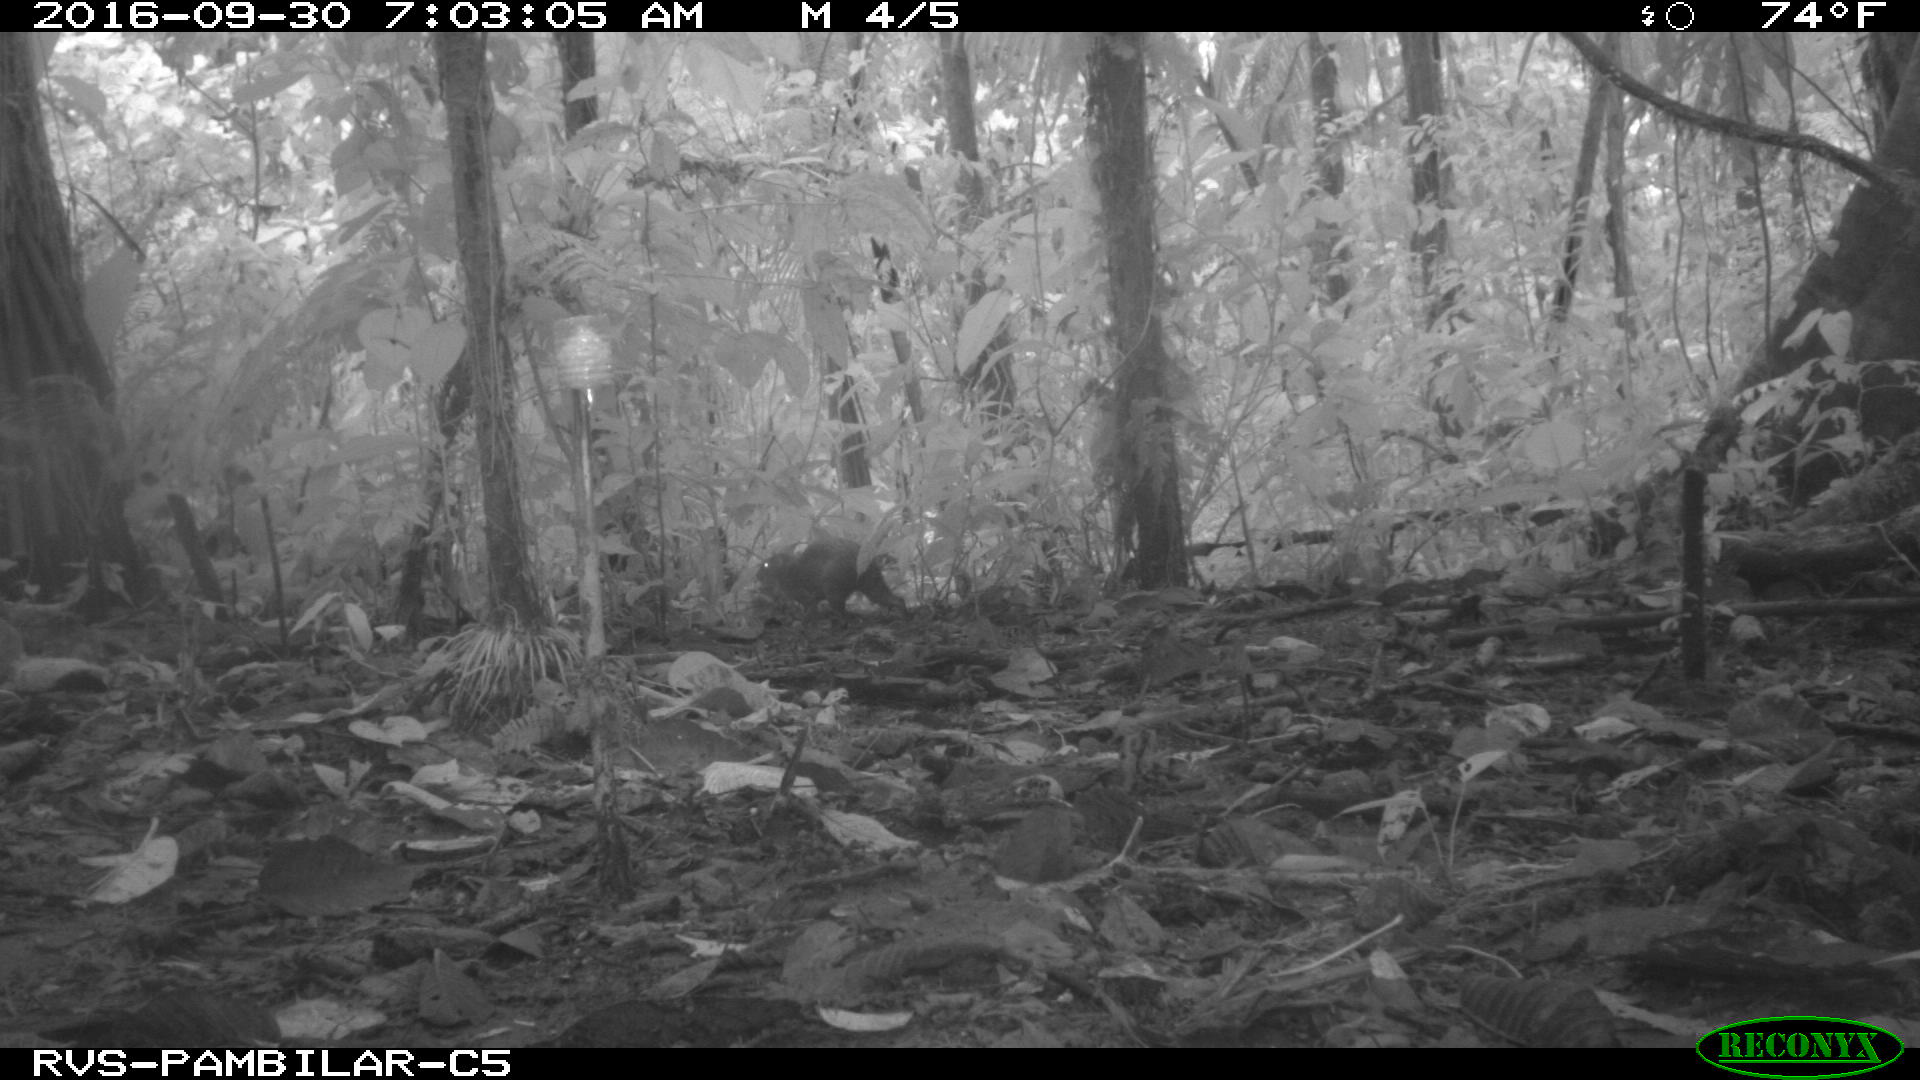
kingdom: Animalia
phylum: Chordata
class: Mammalia
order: Rodentia
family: Dasyproctidae
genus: Dasyprocta
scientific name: Dasyprocta punctata
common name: Central american agouti
